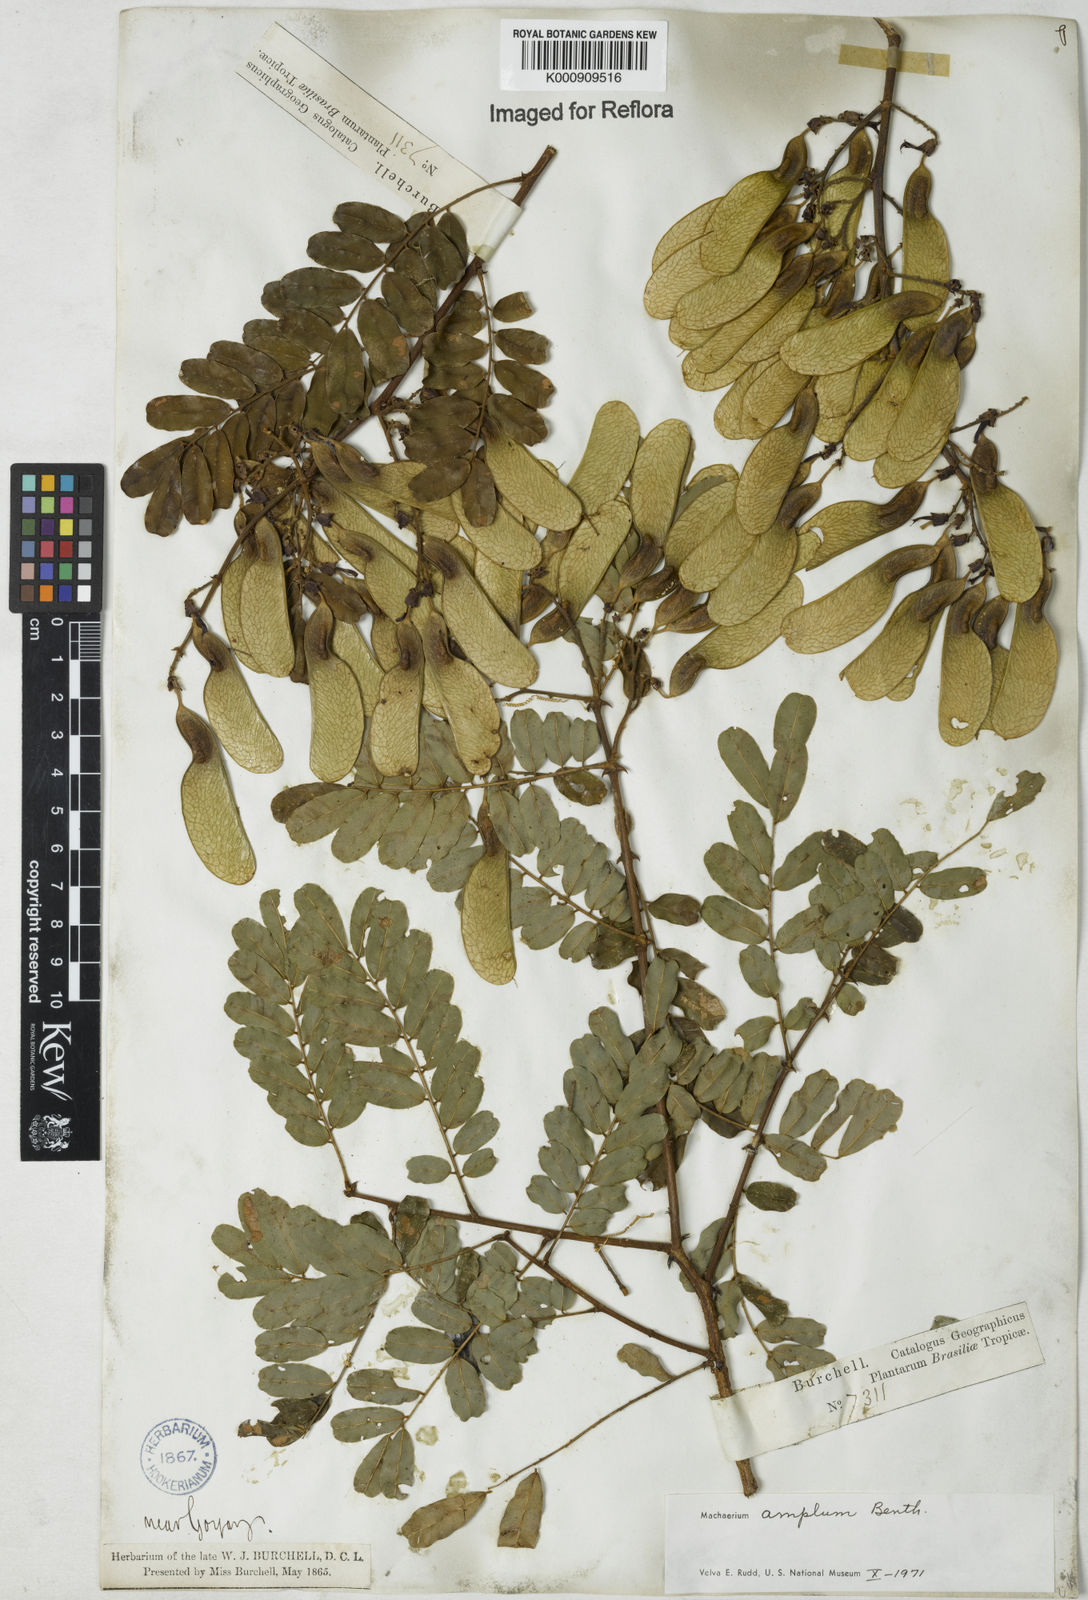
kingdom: Plantae
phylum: Tracheophyta
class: Magnoliopsida
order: Fabales
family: Fabaceae
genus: Machaerium
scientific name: Machaerium amplum
